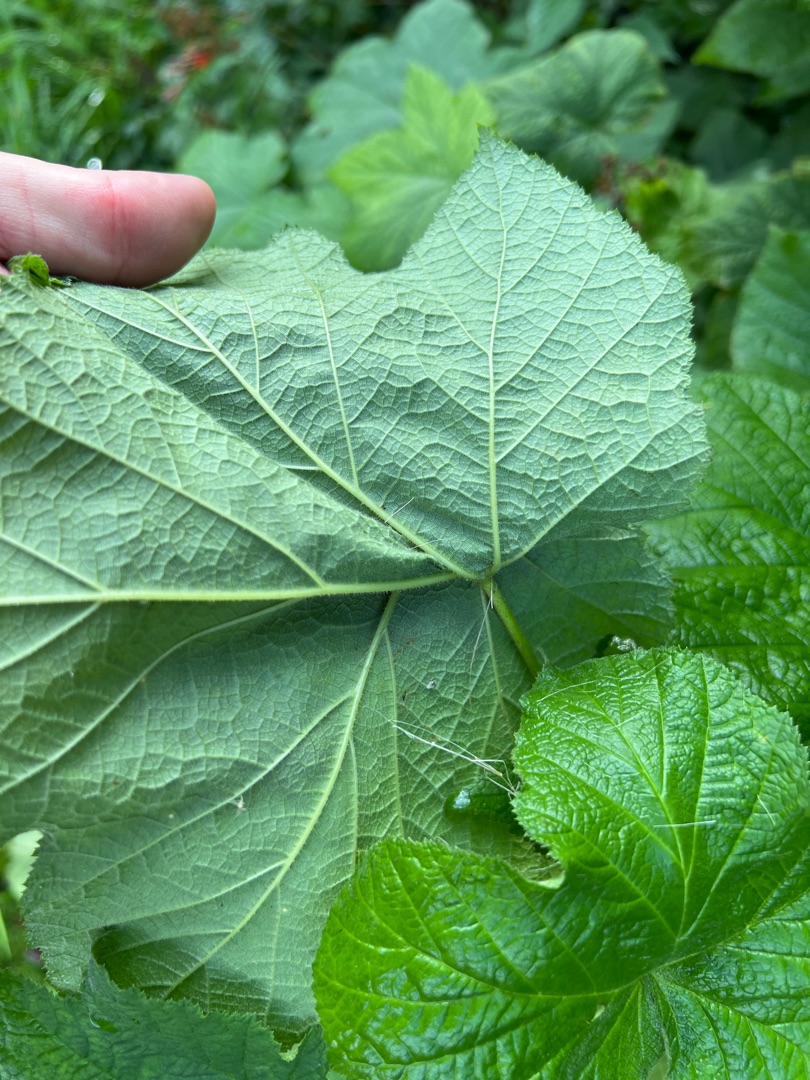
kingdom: Plantae
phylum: Tracheophyta
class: Magnoliopsida
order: Rosales
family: Rosaceae
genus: Rubus
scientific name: Rubus odoratus
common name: Rosen-brombær
